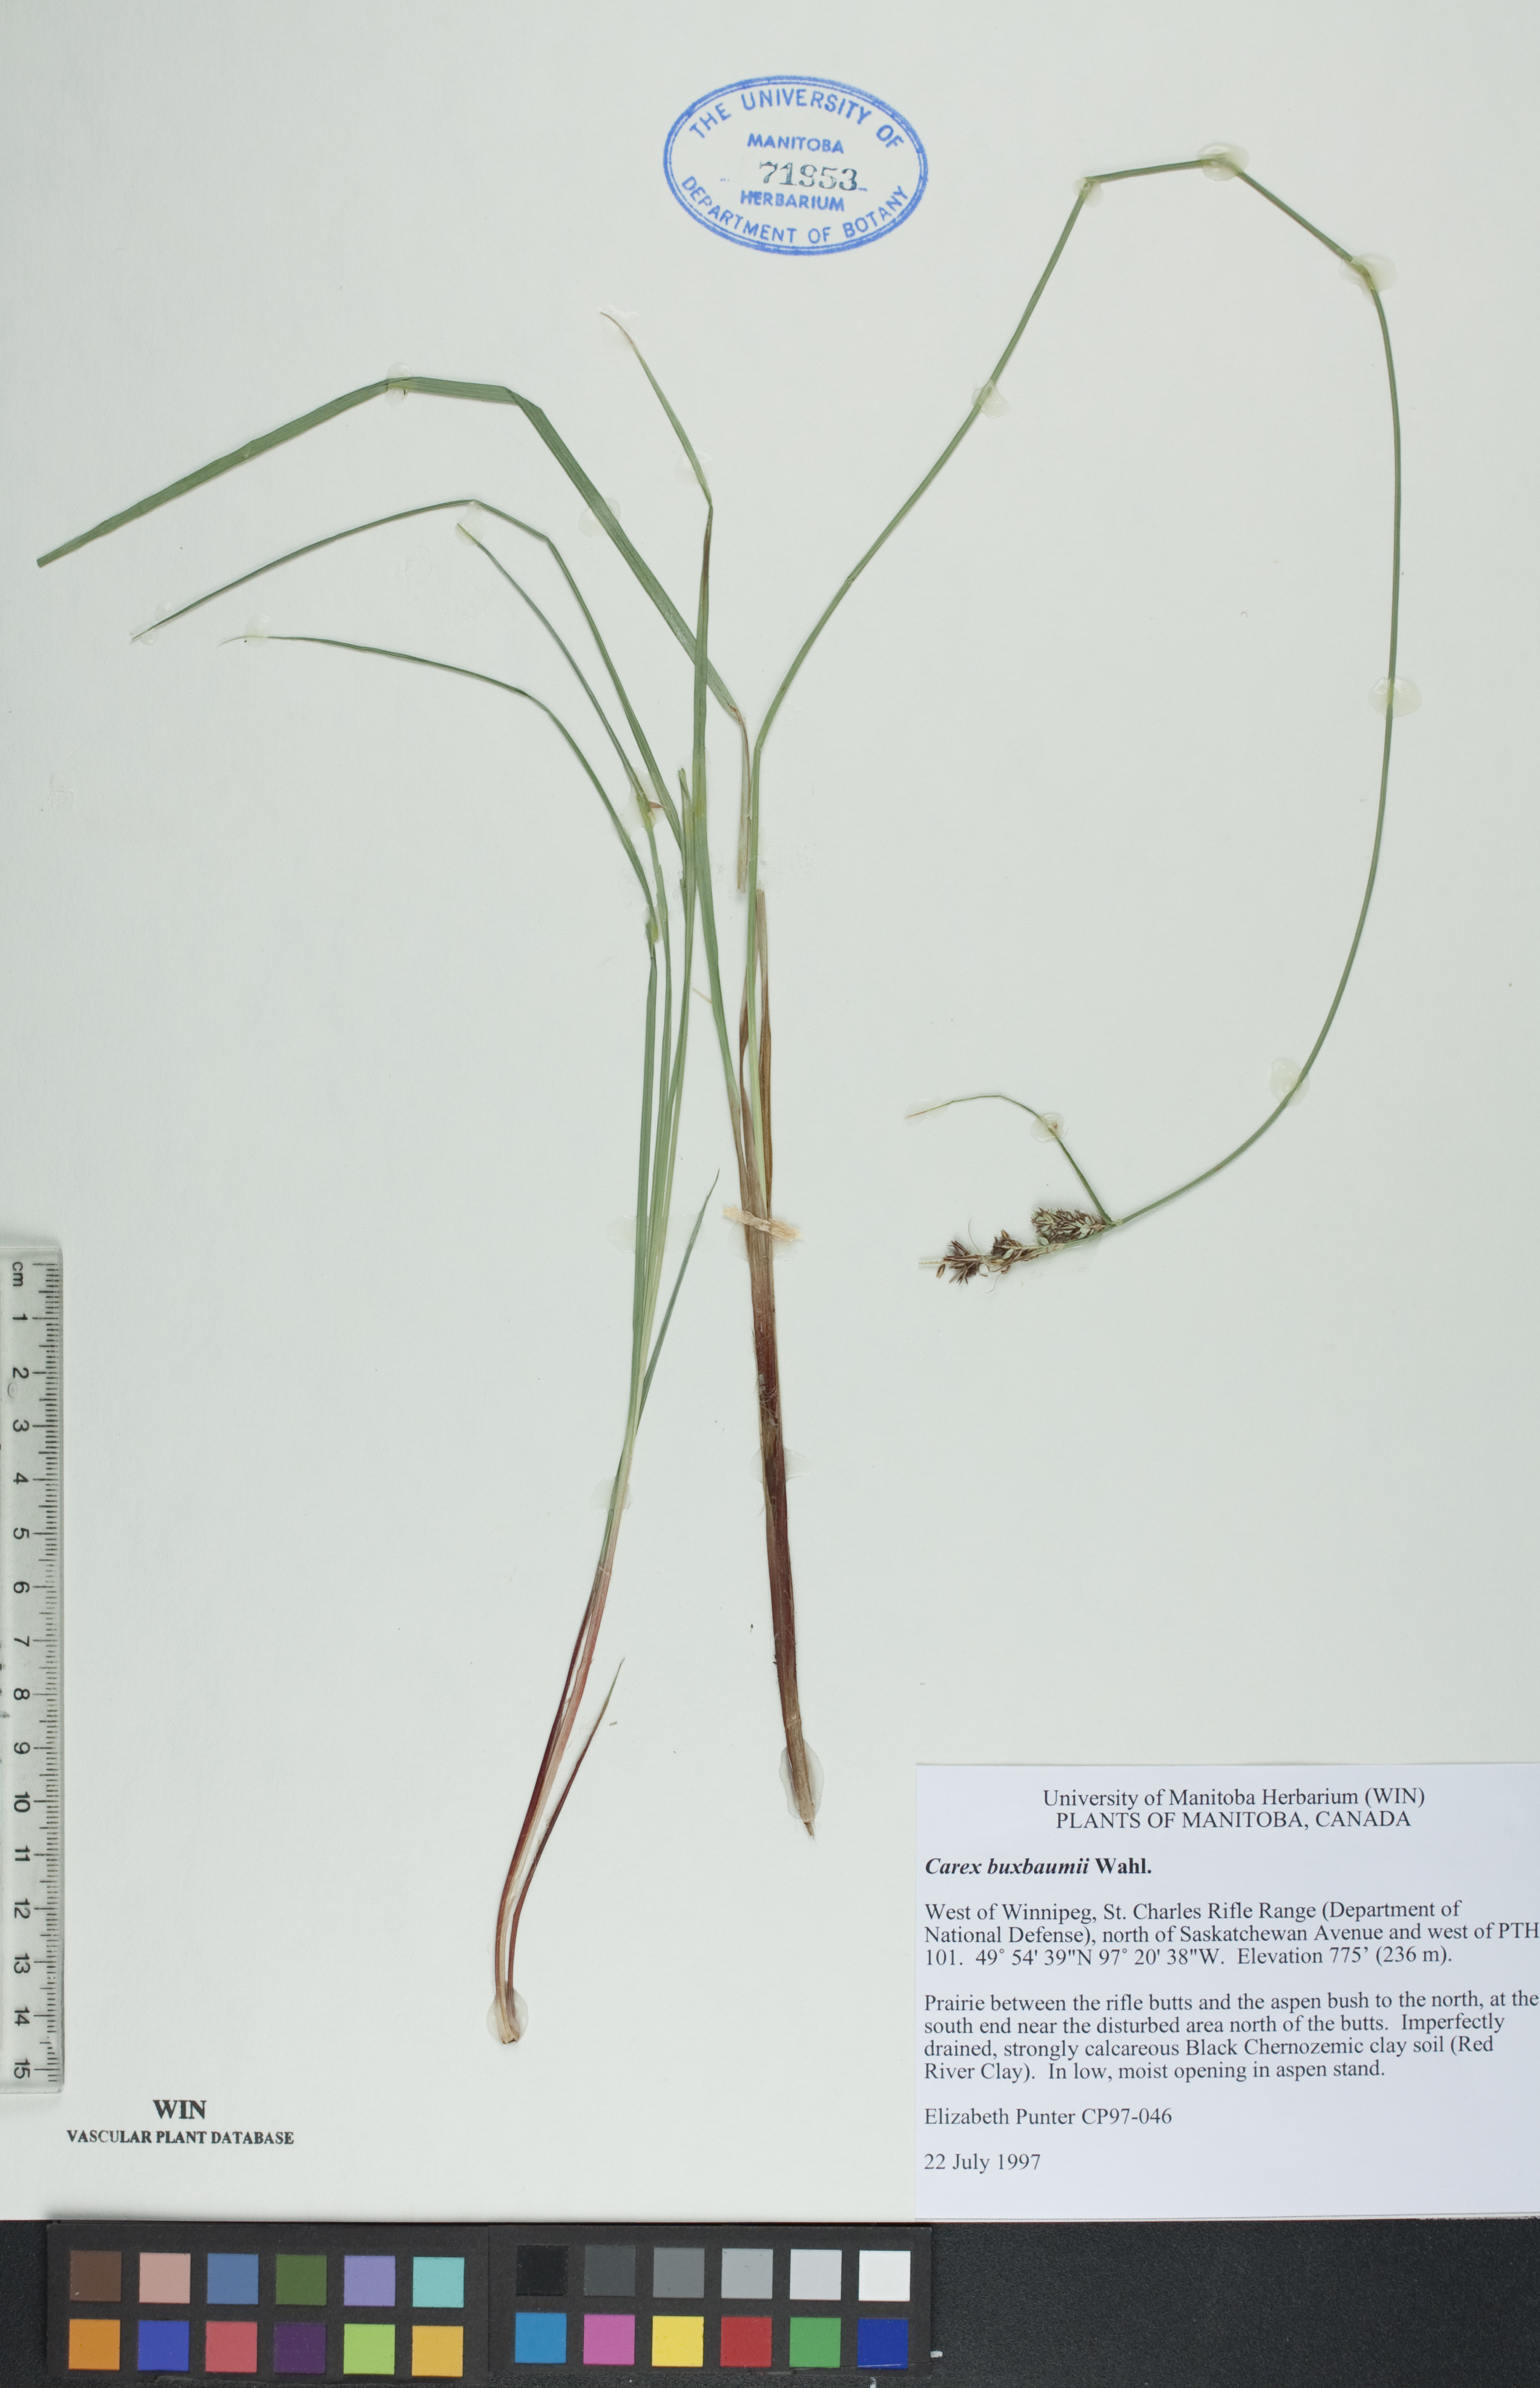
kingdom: Plantae
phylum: Tracheophyta
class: Liliopsida
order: Poales
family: Cyperaceae
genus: Carex
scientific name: Carex buxbaumii
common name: Club sedge
